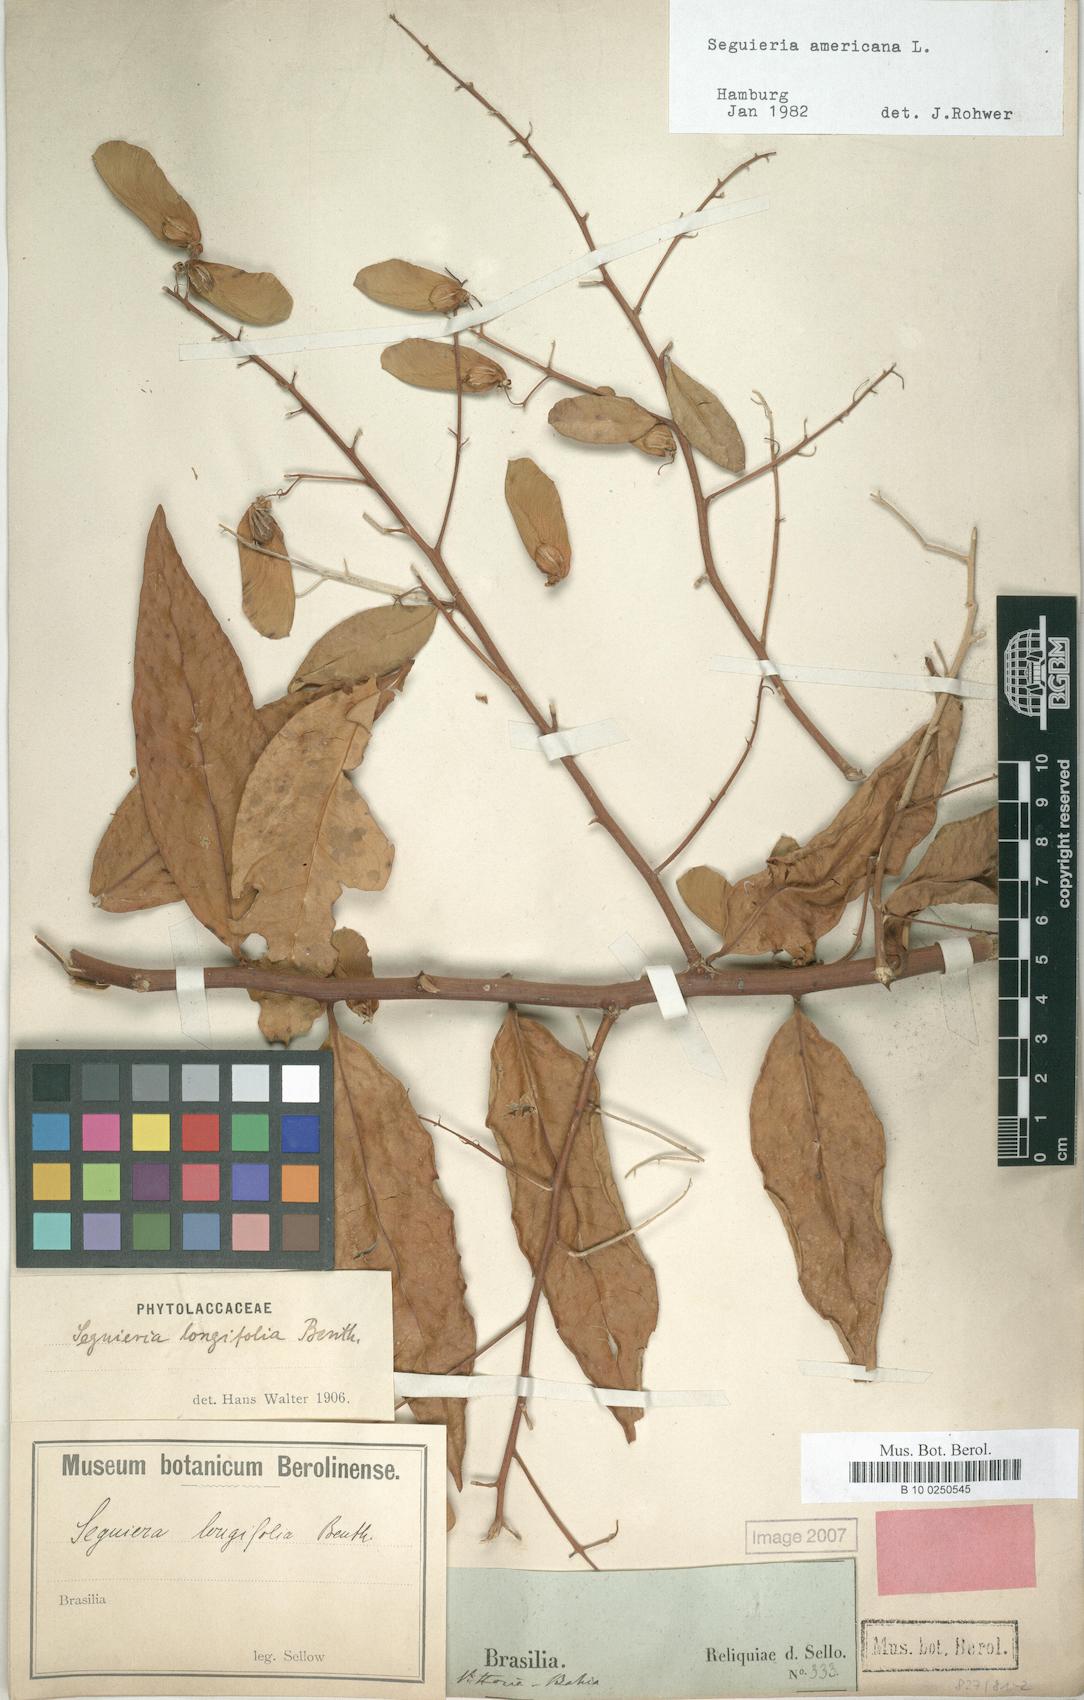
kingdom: Plantae
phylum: Tracheophyta
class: Magnoliopsida
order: Caryophyllales
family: Phytolaccaceae
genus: Seguieria
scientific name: Seguieria americana
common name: American seguieria
